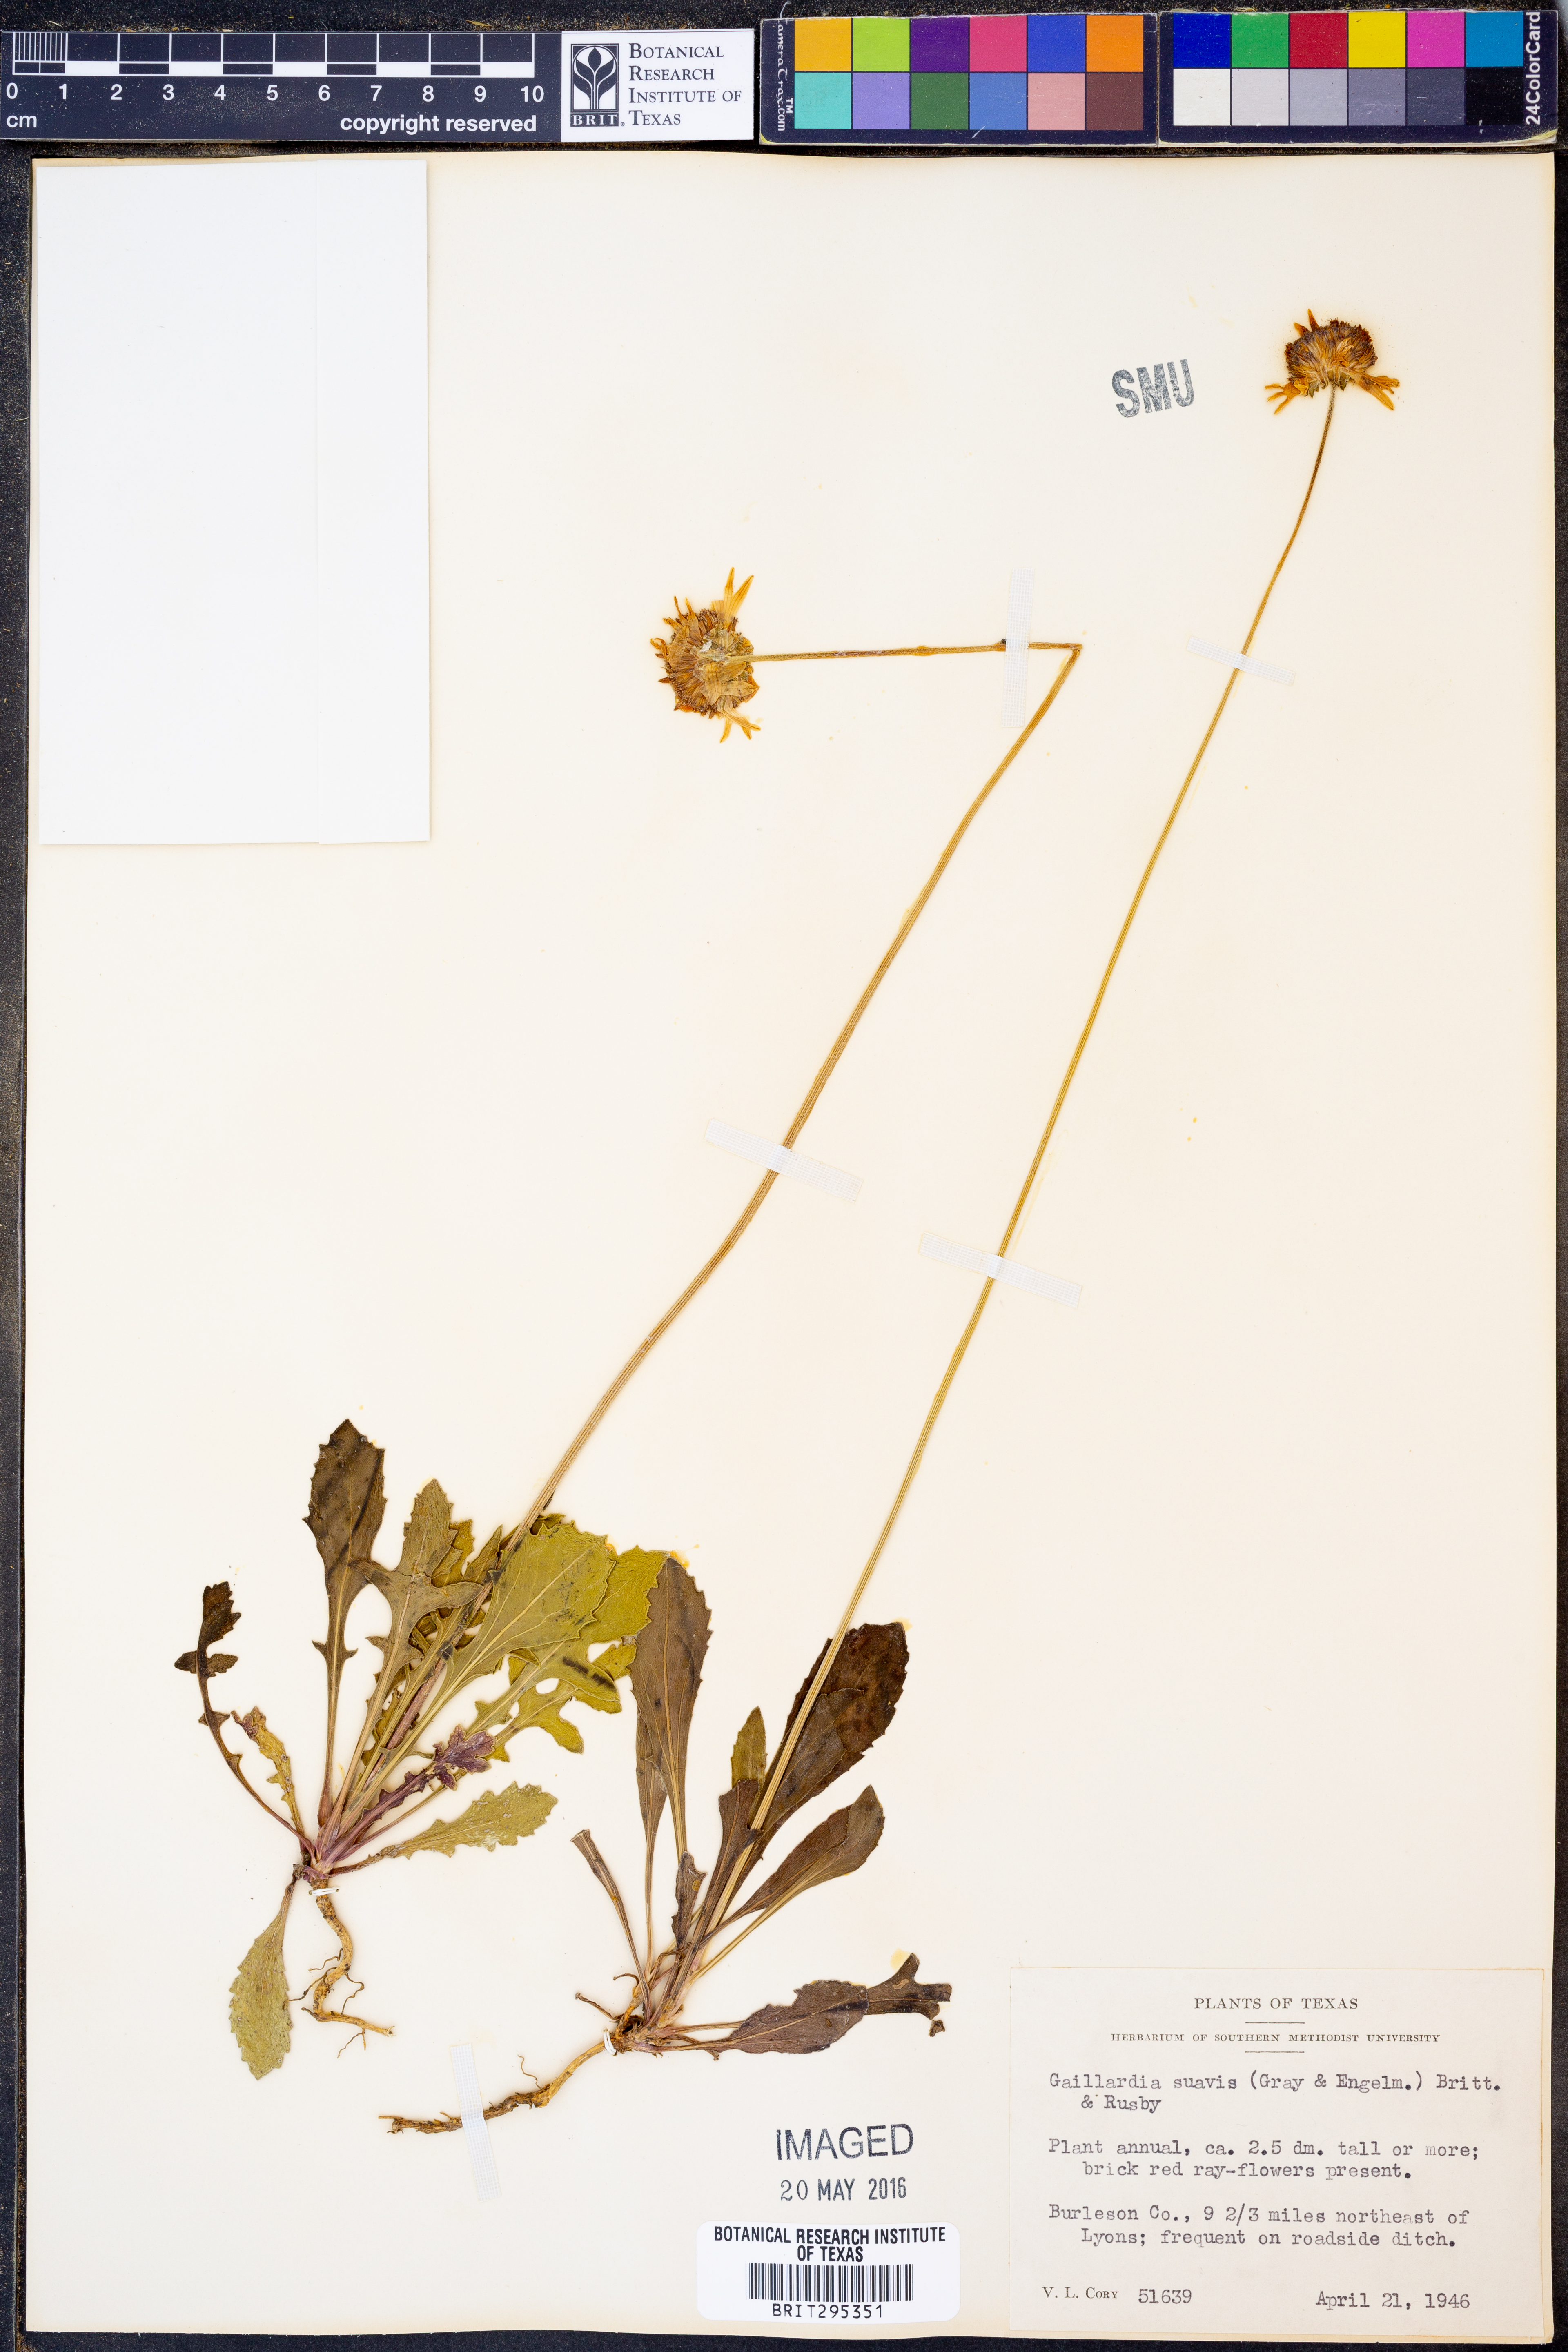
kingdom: Plantae
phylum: Tracheophyta
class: Magnoliopsida
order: Asterales
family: Asteraceae
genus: Gaillardia
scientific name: Gaillardia suavis
